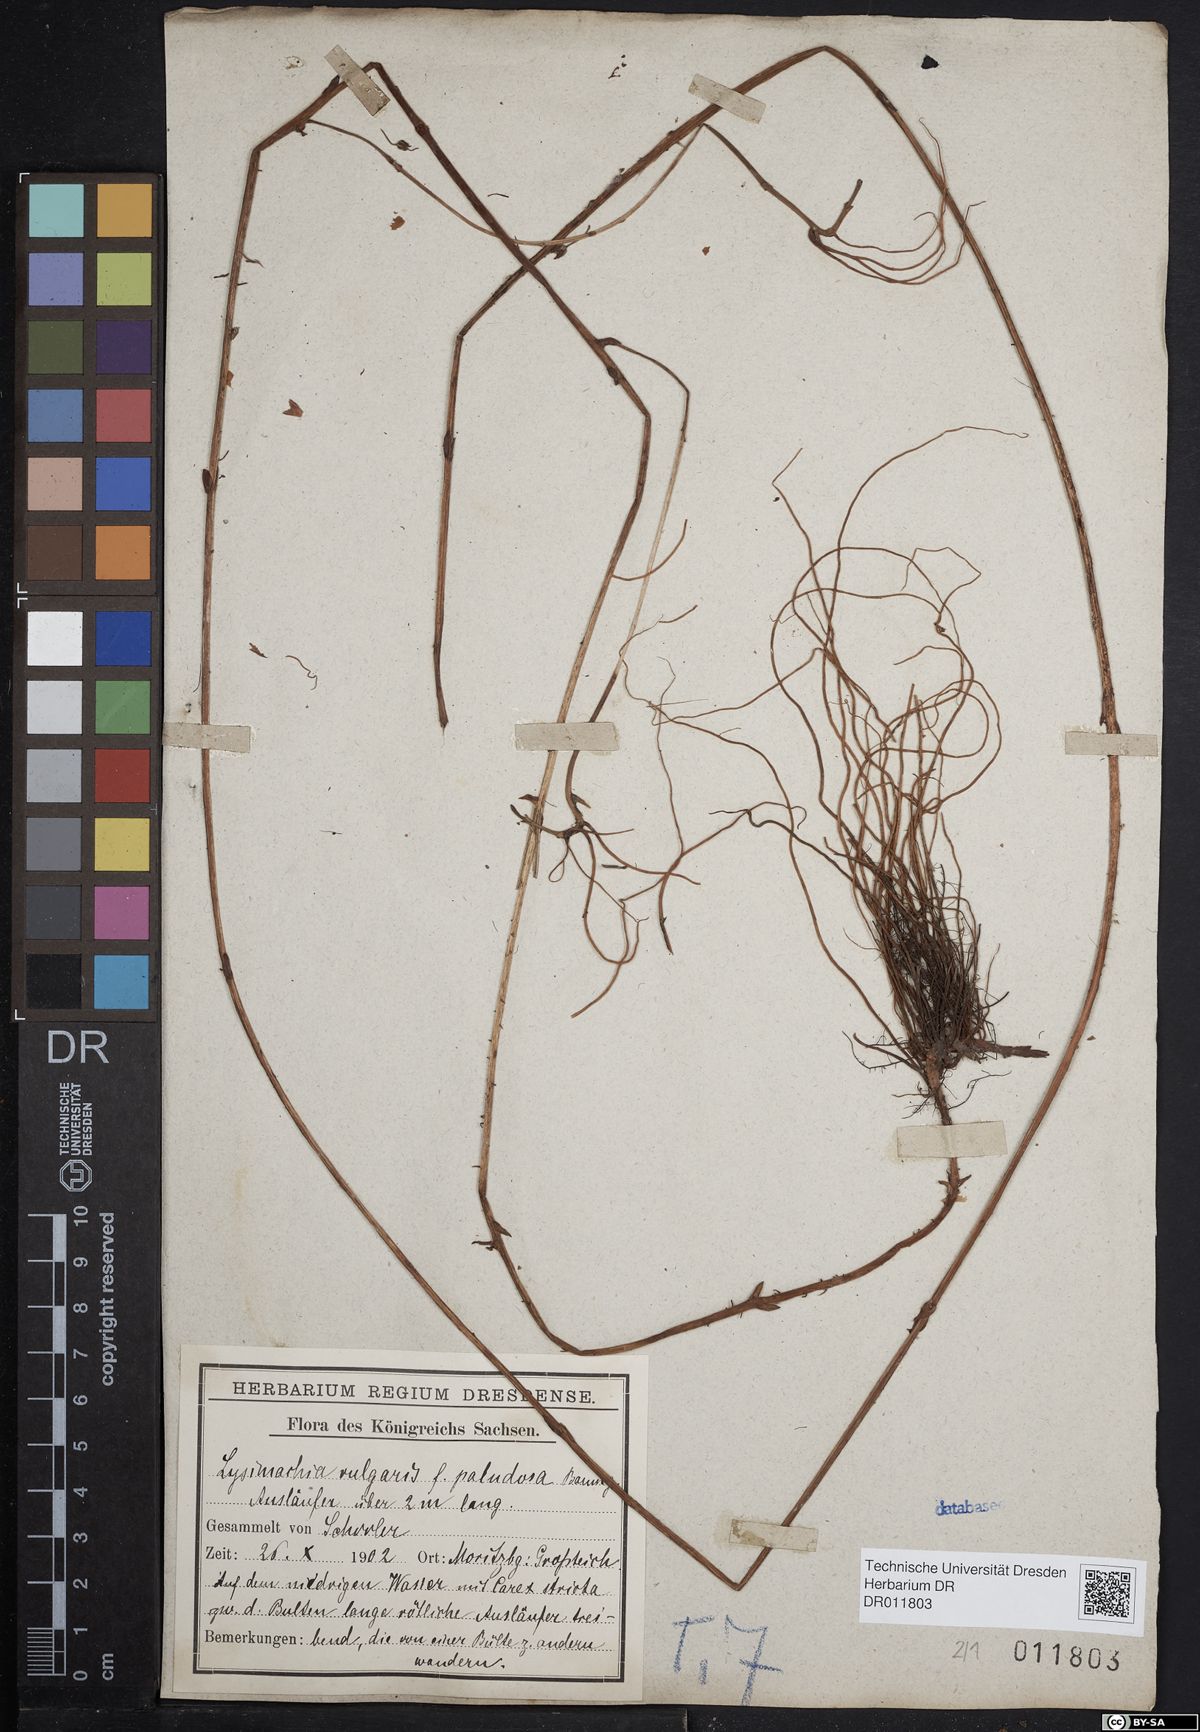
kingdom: Plantae
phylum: Tracheophyta
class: Magnoliopsida
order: Ericales
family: Primulaceae
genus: Lysimachia
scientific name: Lysimachia vulgaris
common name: Yellow loosestrife
